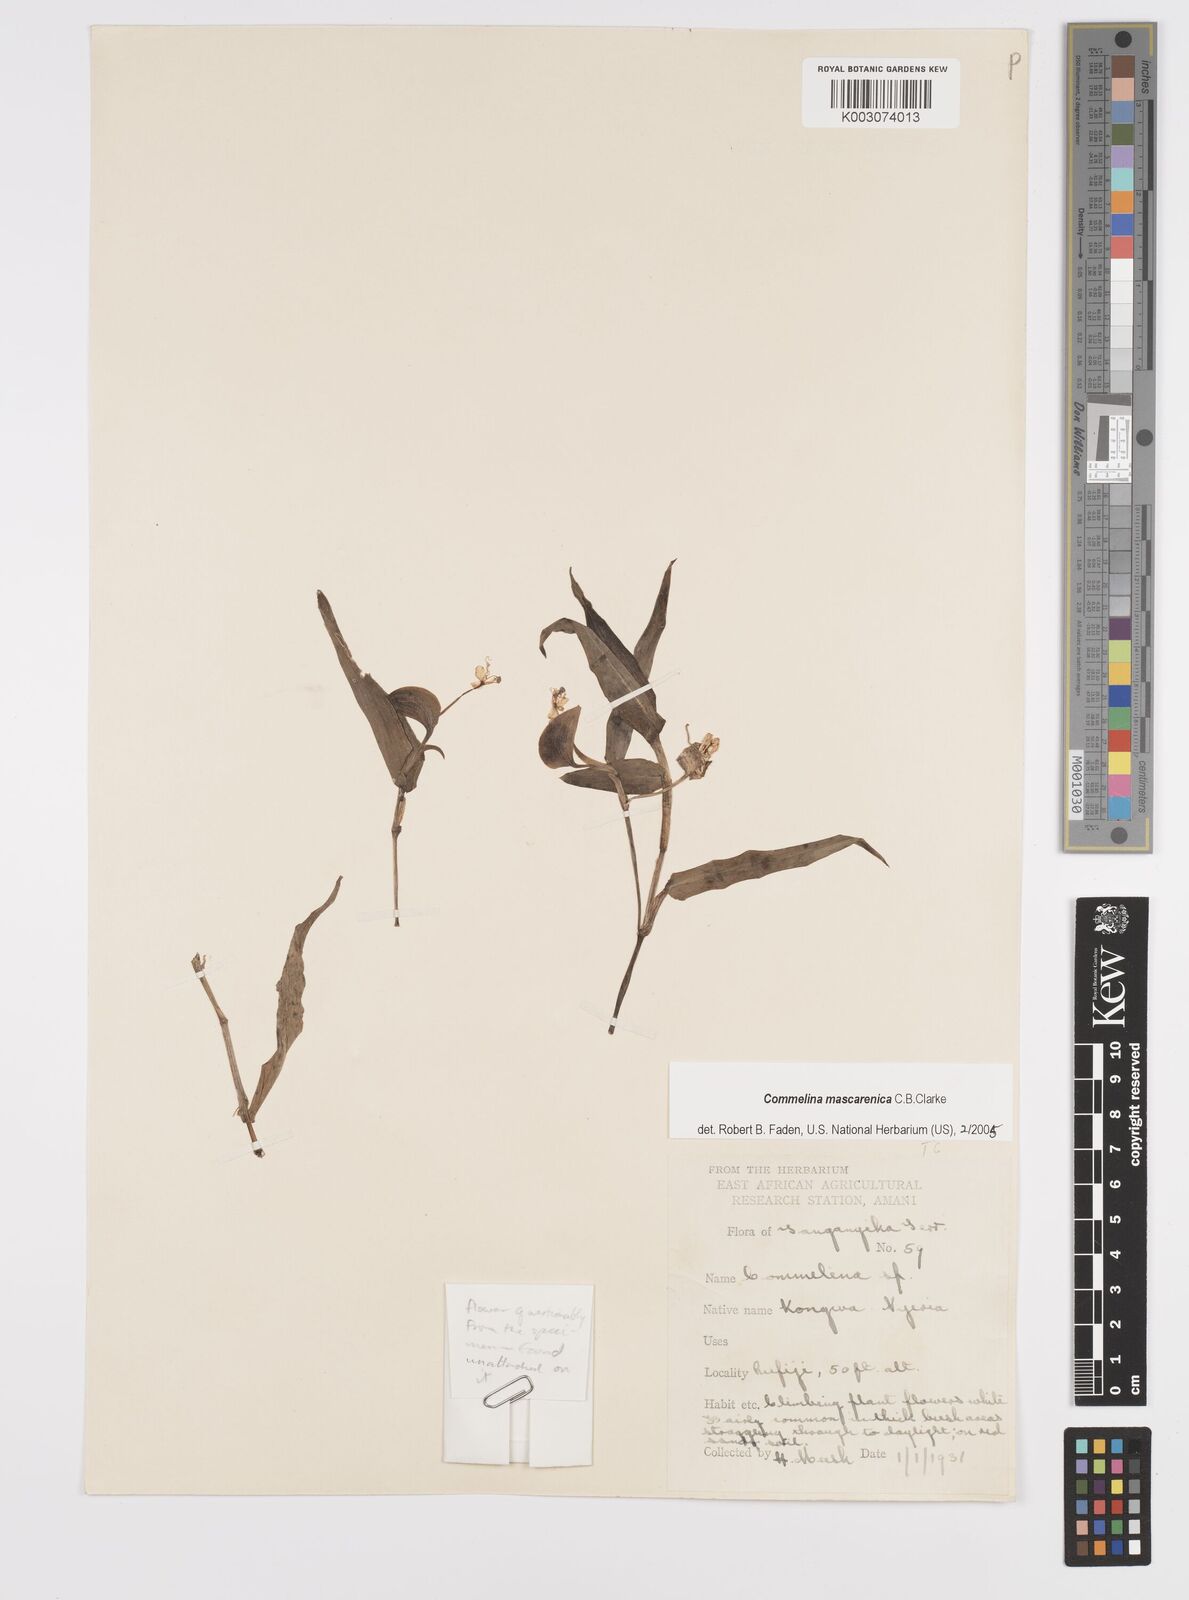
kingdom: Plantae
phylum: Tracheophyta
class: Liliopsida
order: Commelinales
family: Commelinaceae
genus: Commelina
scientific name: Commelina mascarenica
